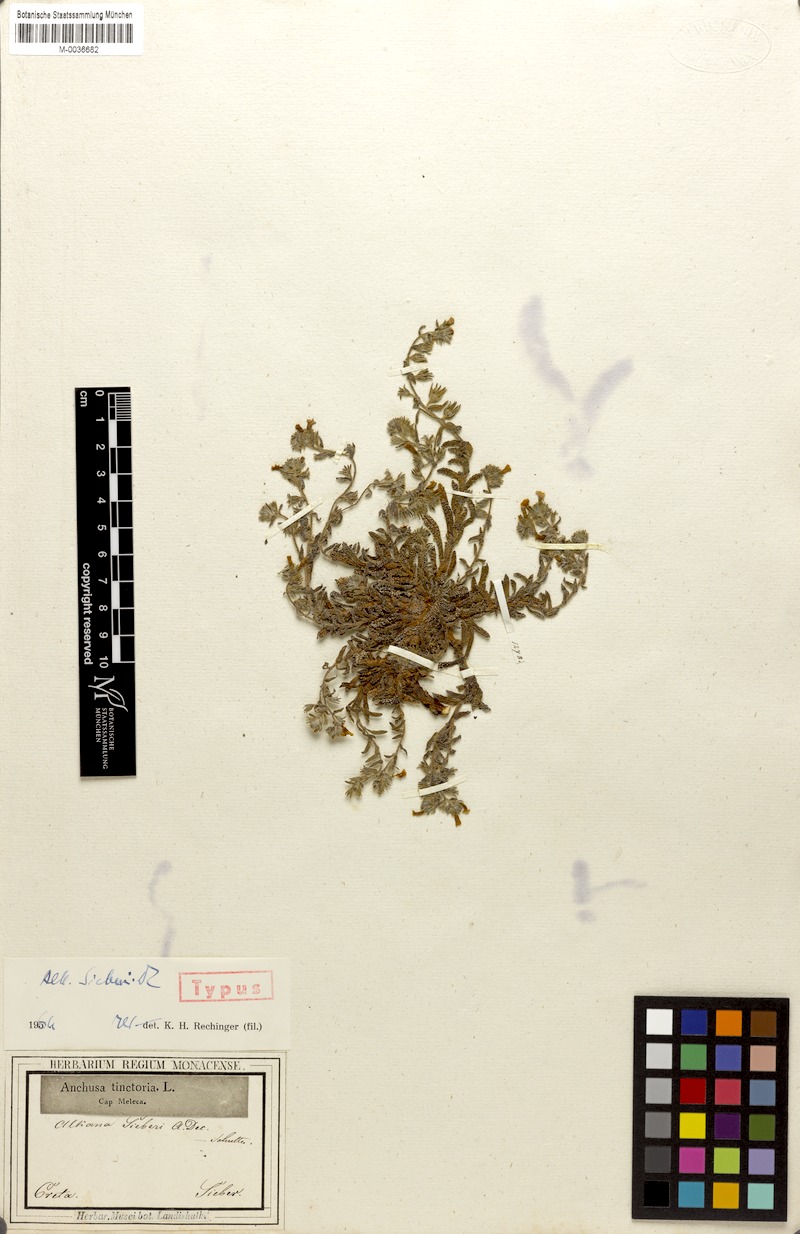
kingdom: Plantae
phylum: Tracheophyta
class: Magnoliopsida
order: Boraginales
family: Boraginaceae
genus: Alkanna
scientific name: Alkanna sieberi
